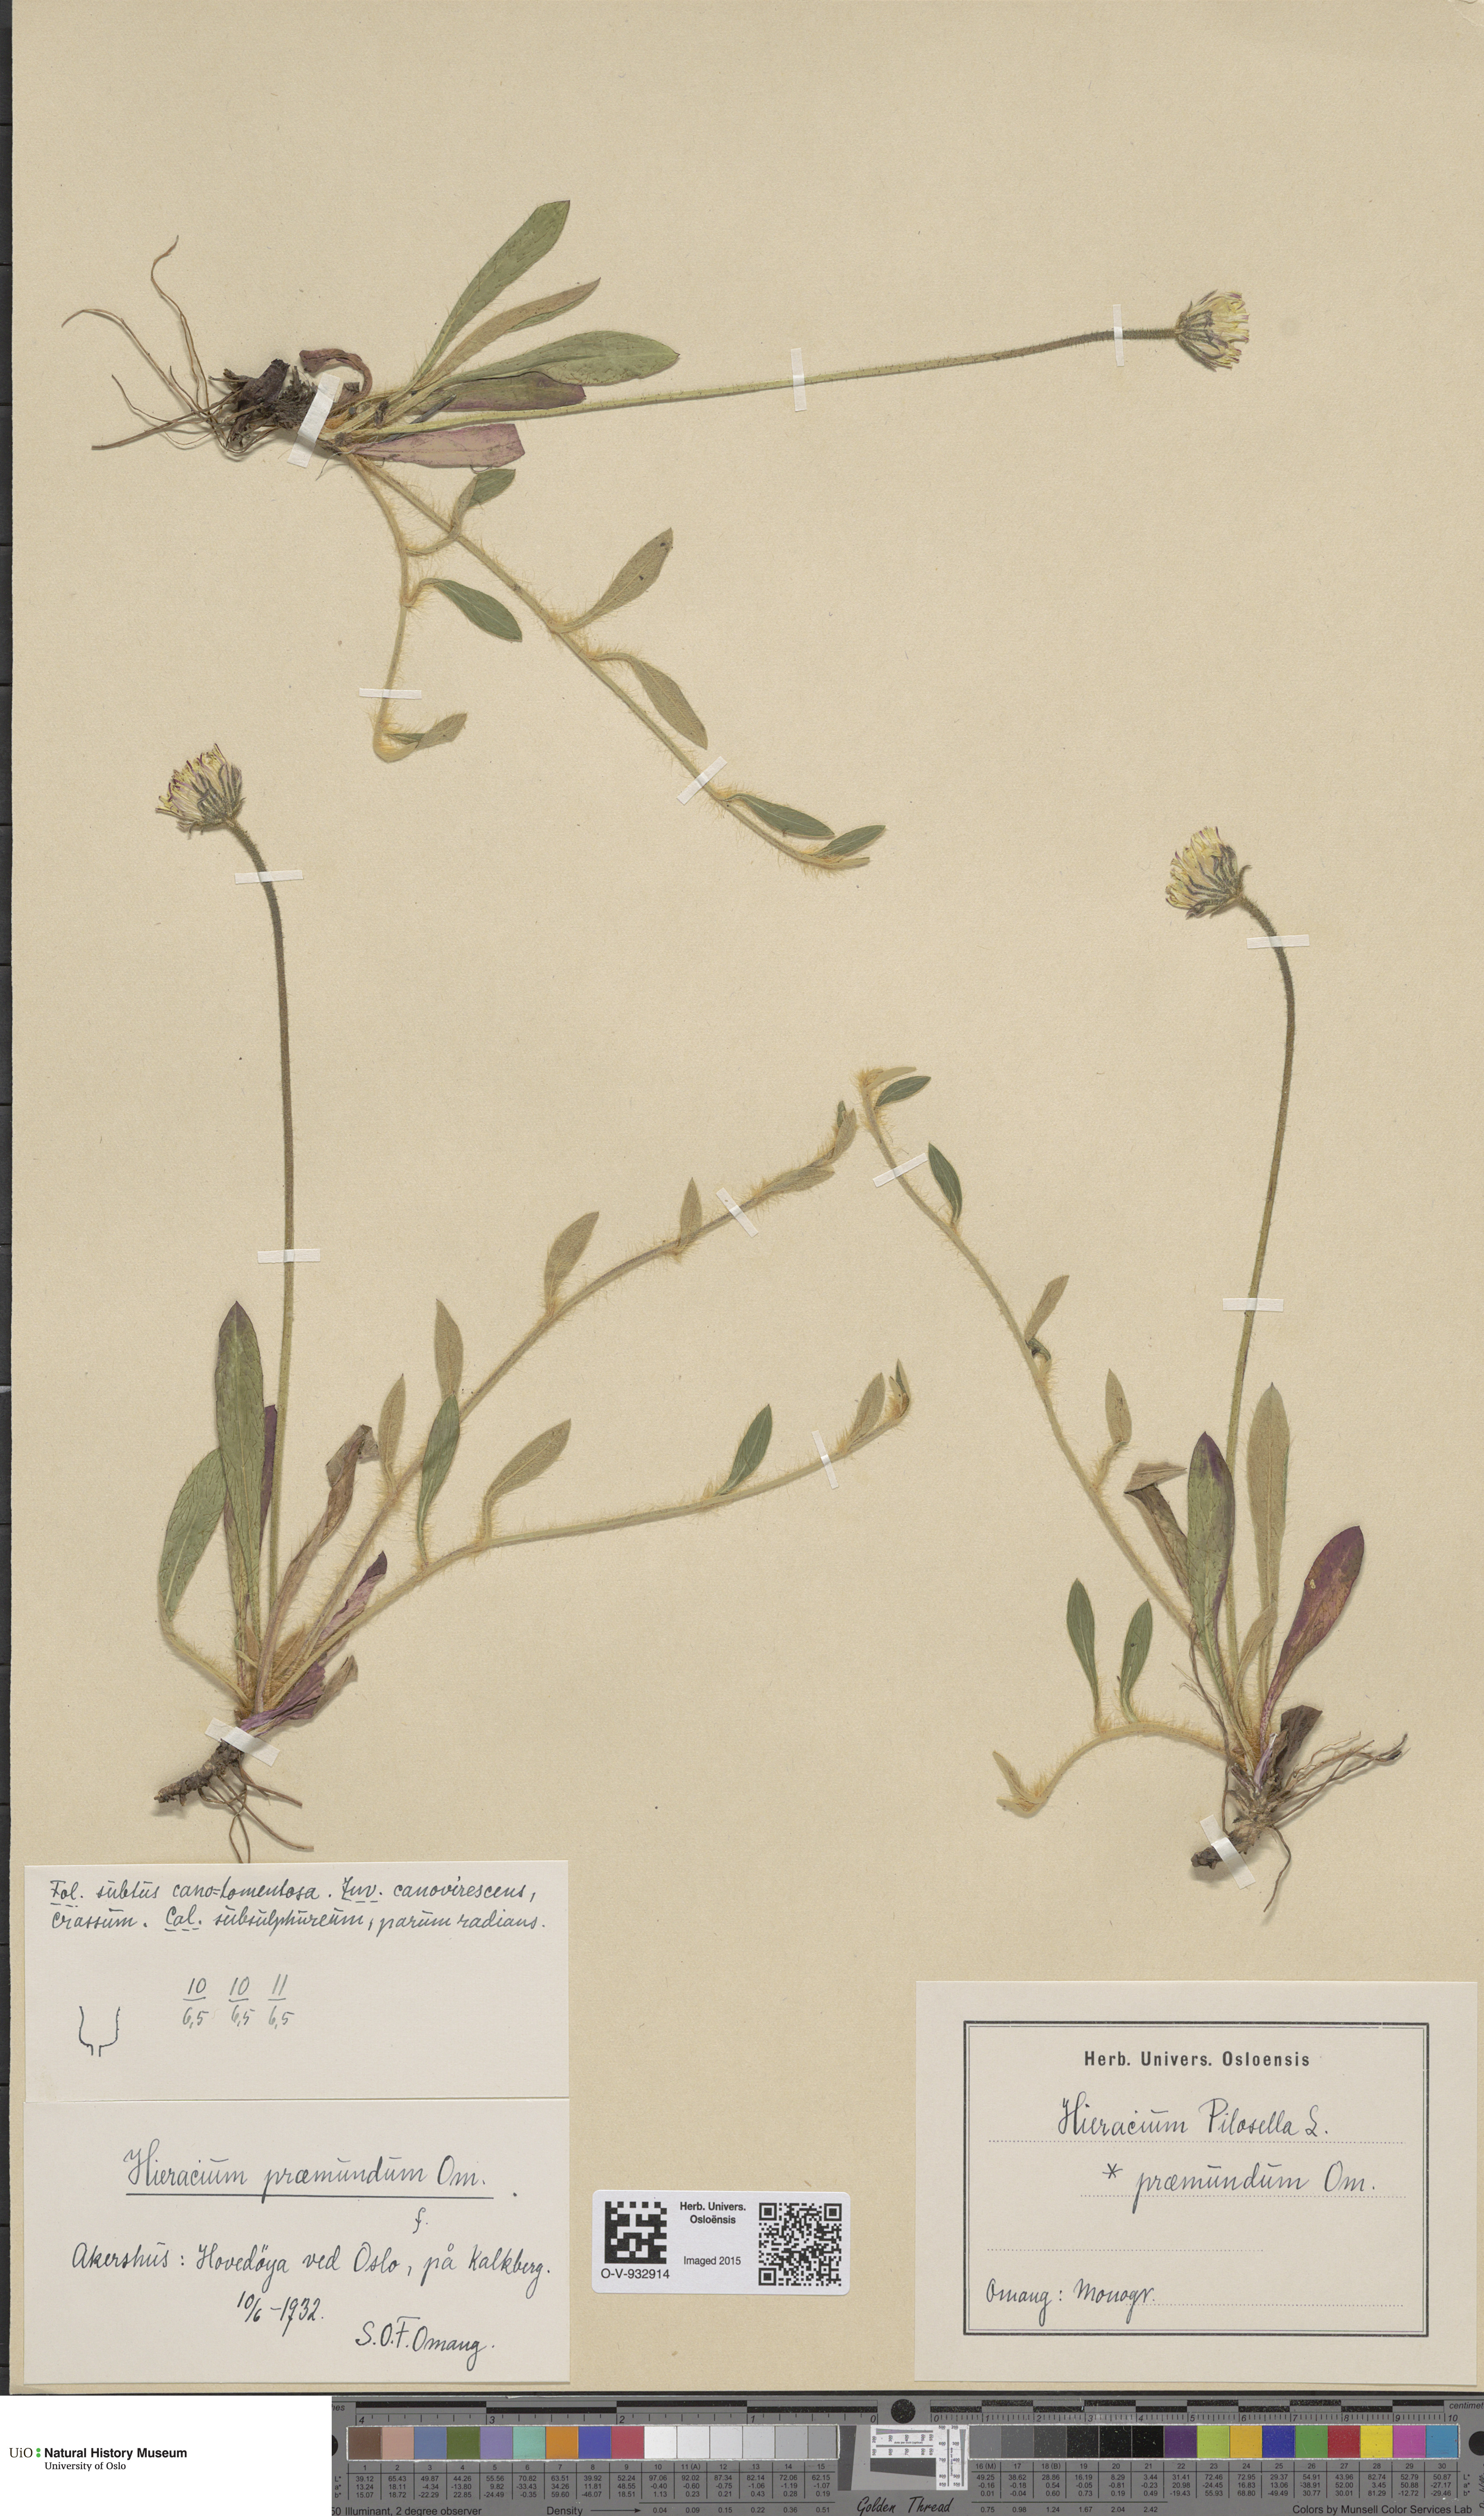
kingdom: Plantae
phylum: Tracheophyta
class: Magnoliopsida
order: Asterales
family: Asteraceae
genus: Pilosella
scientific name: Pilosella officinarum
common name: Mouse-ear hawkweed
